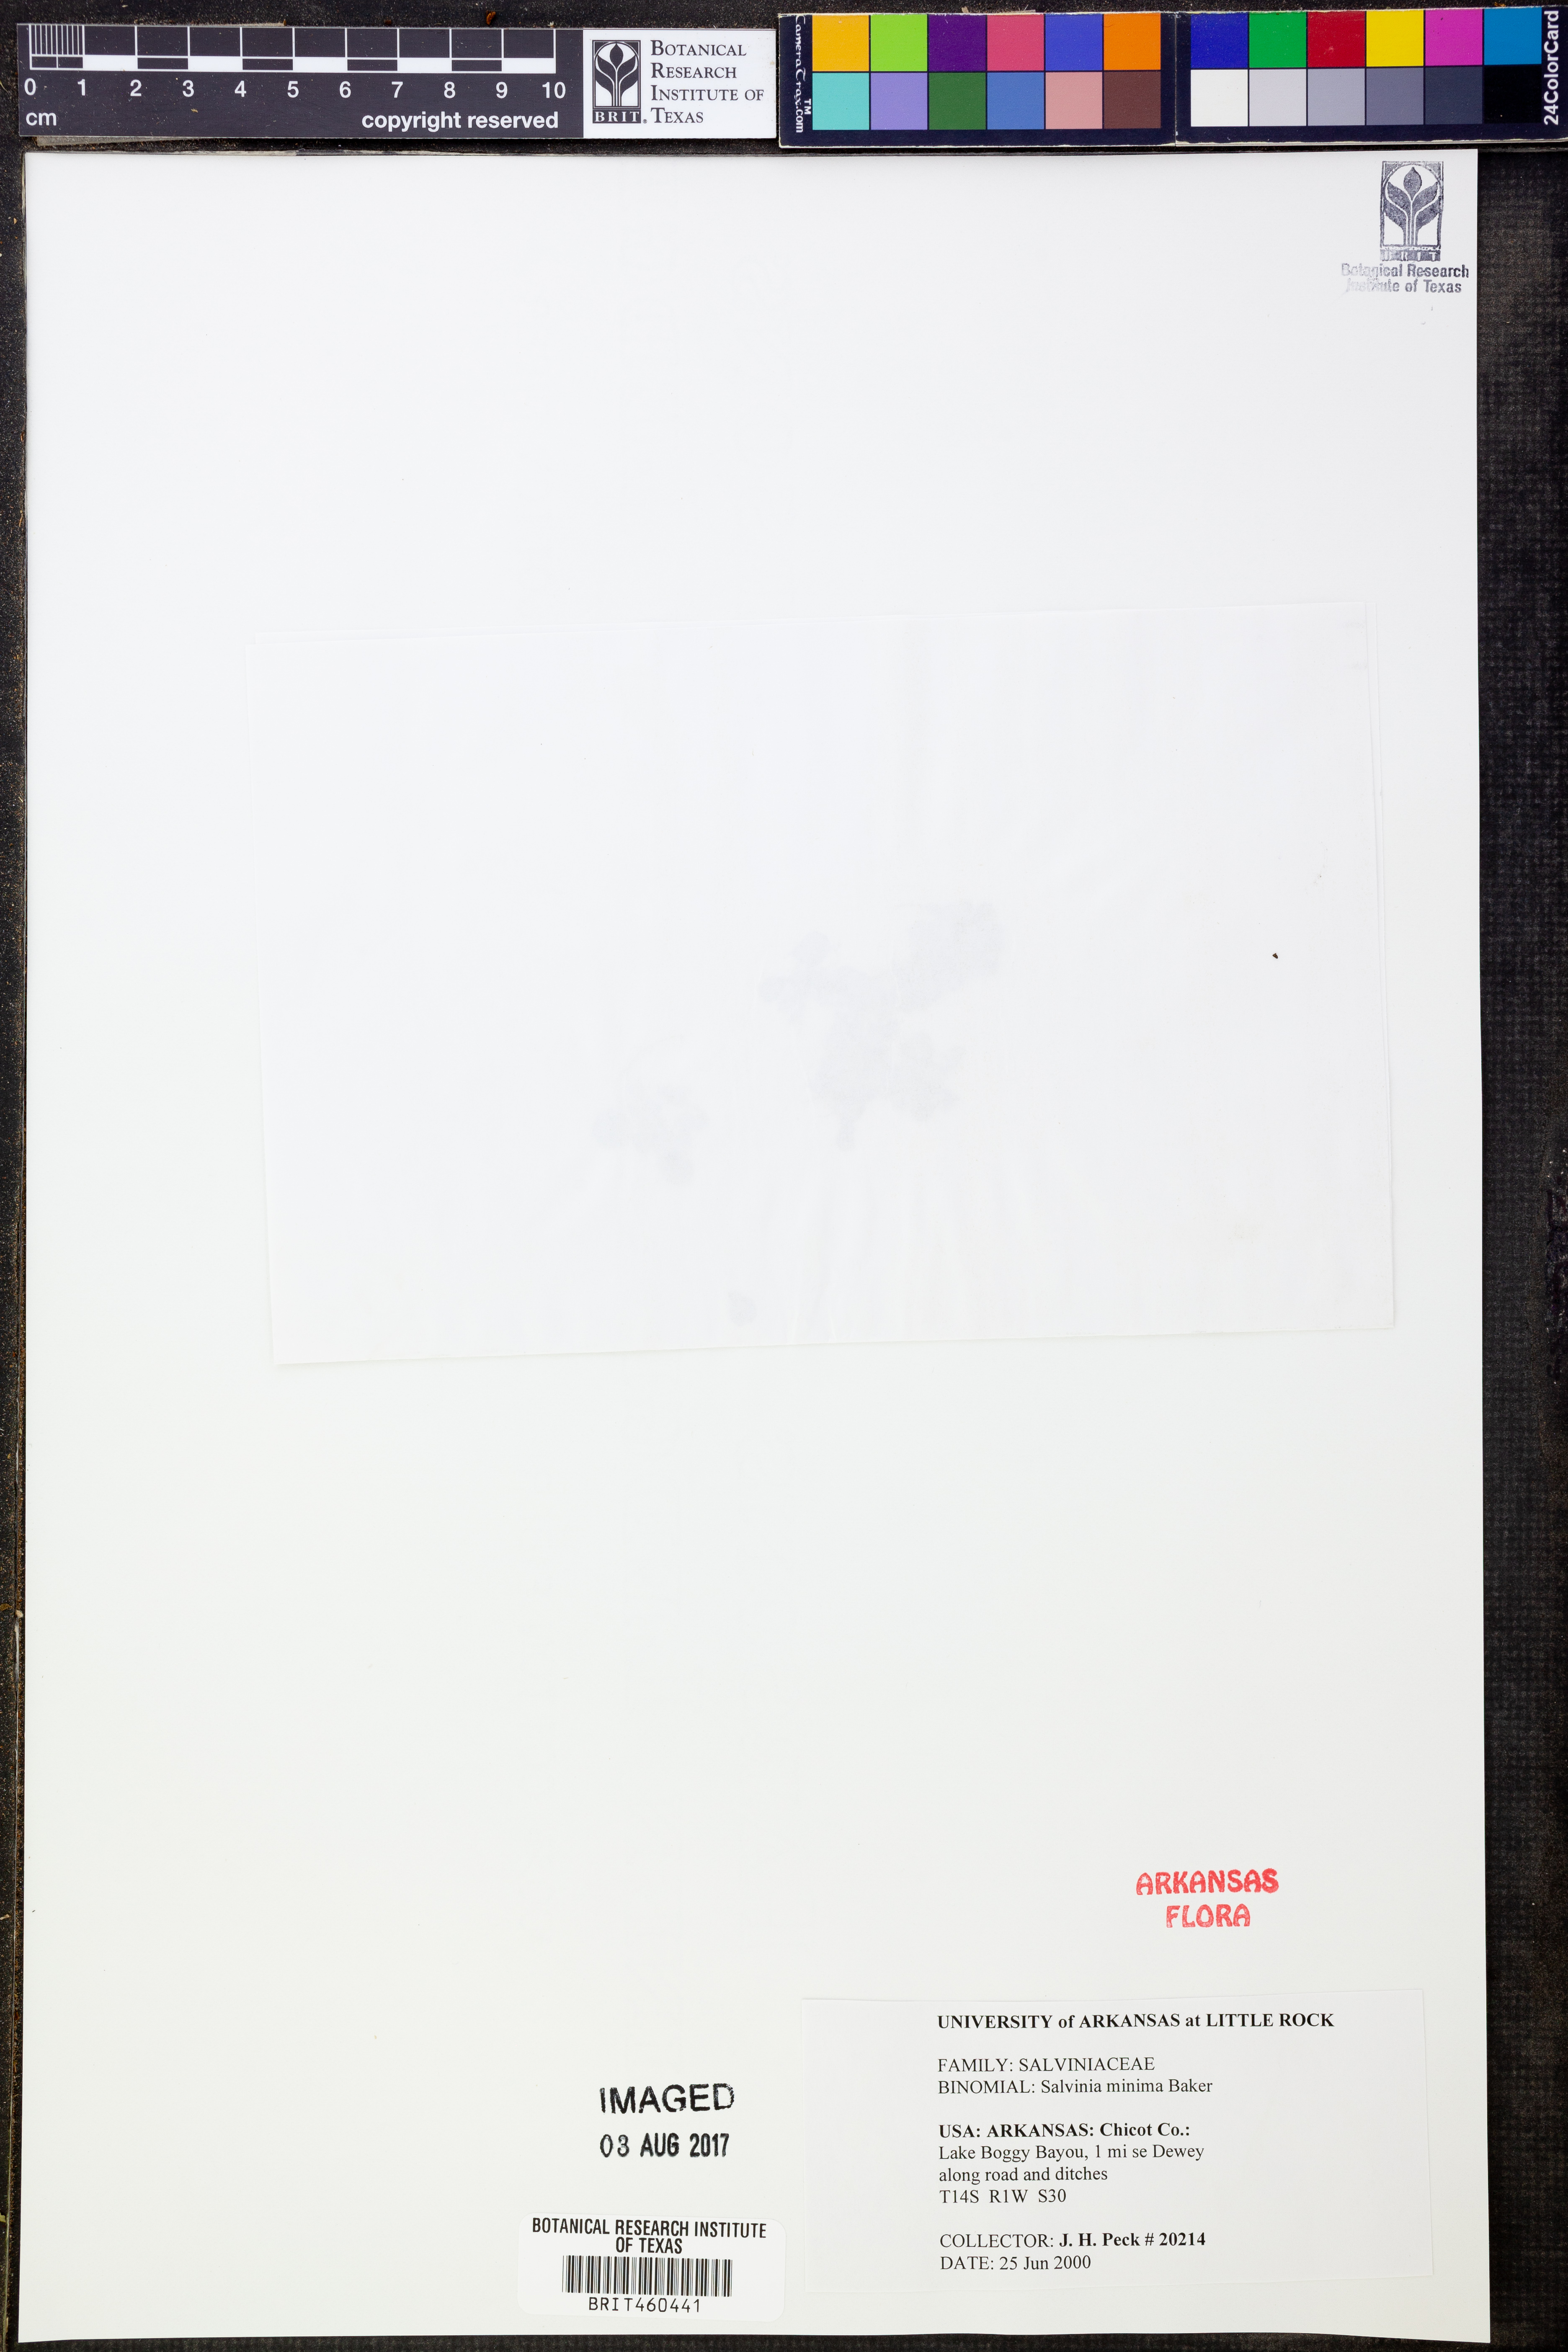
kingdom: Plantae
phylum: Tracheophyta
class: Polypodiopsida
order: Salviniales
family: Salviniaceae
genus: Salvinia
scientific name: Salvinia minima
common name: Water spangles
